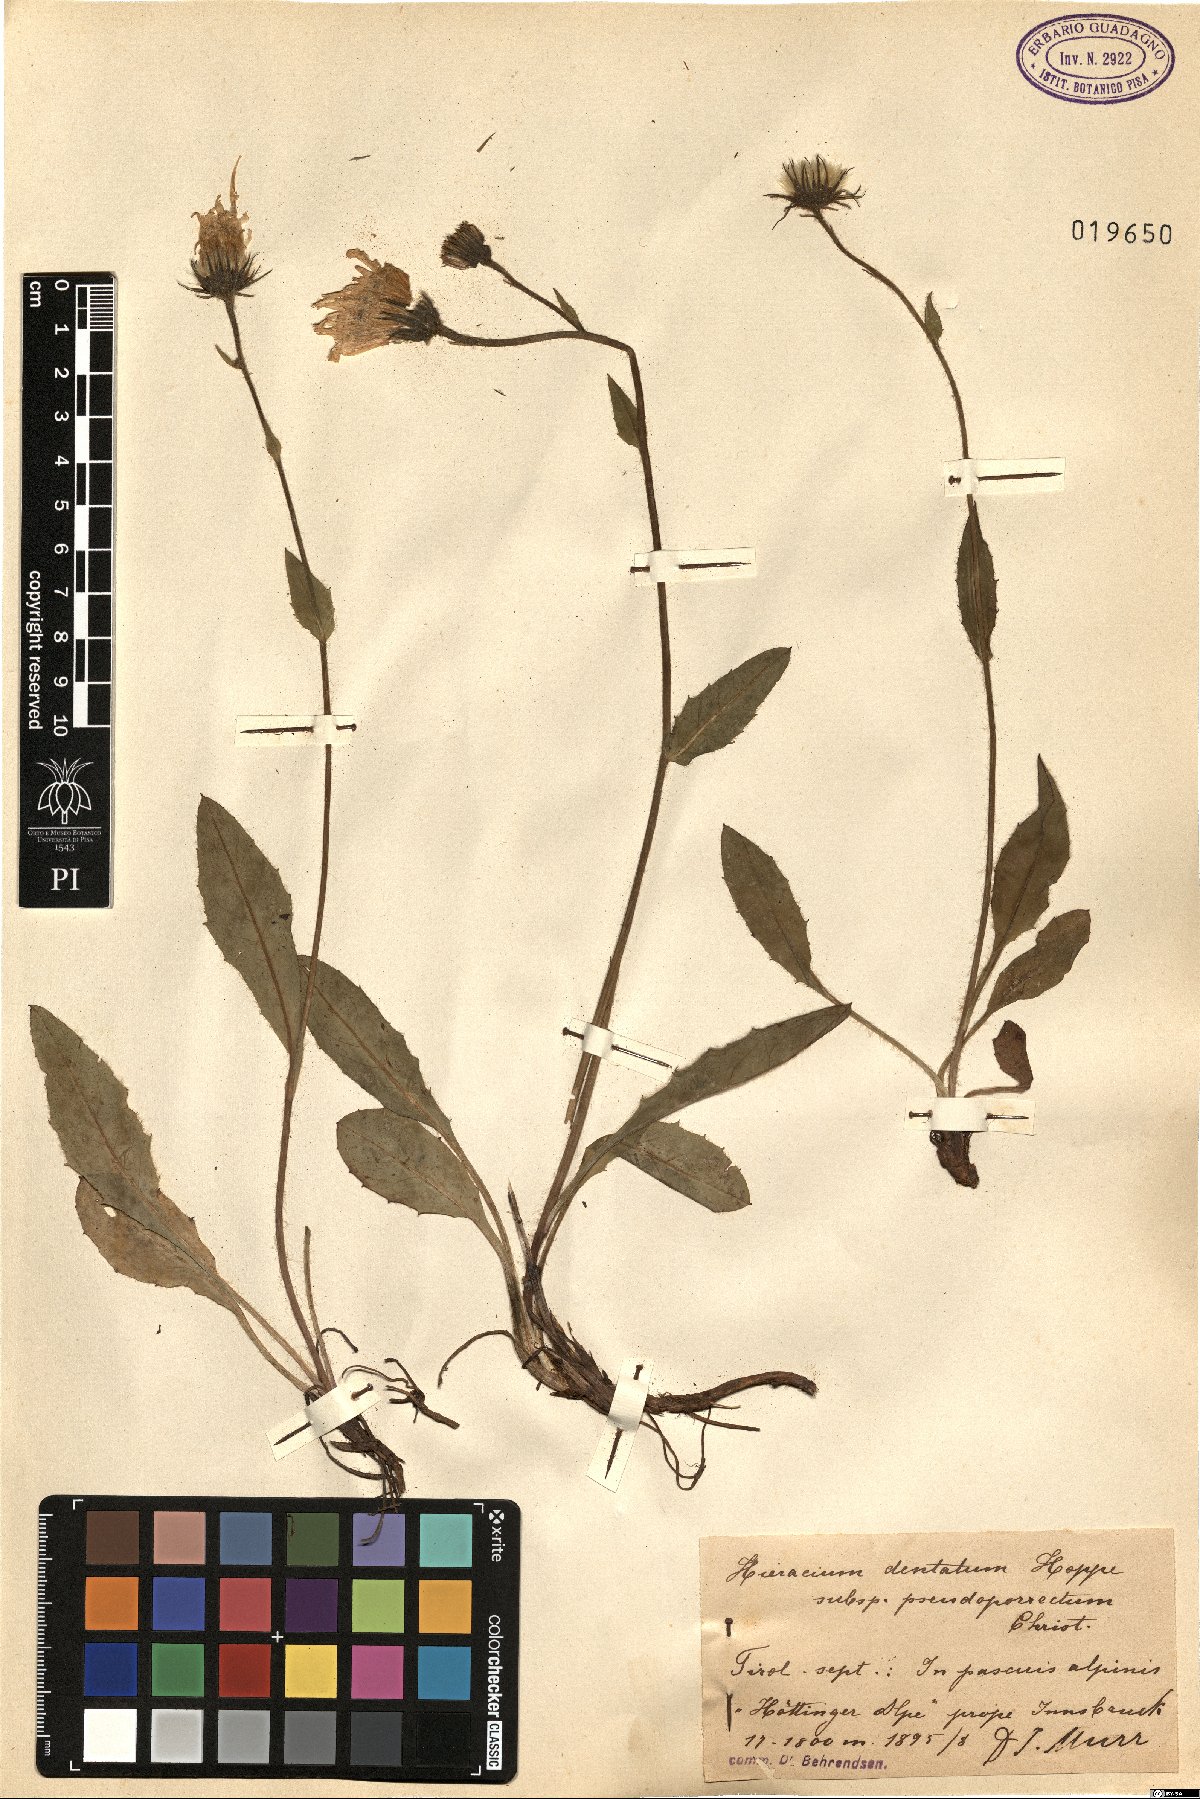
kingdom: Plantae
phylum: Tracheophyta
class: Magnoliopsida
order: Asterales
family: Asteraceae
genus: Hieracium
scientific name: Hieracium dentatum
